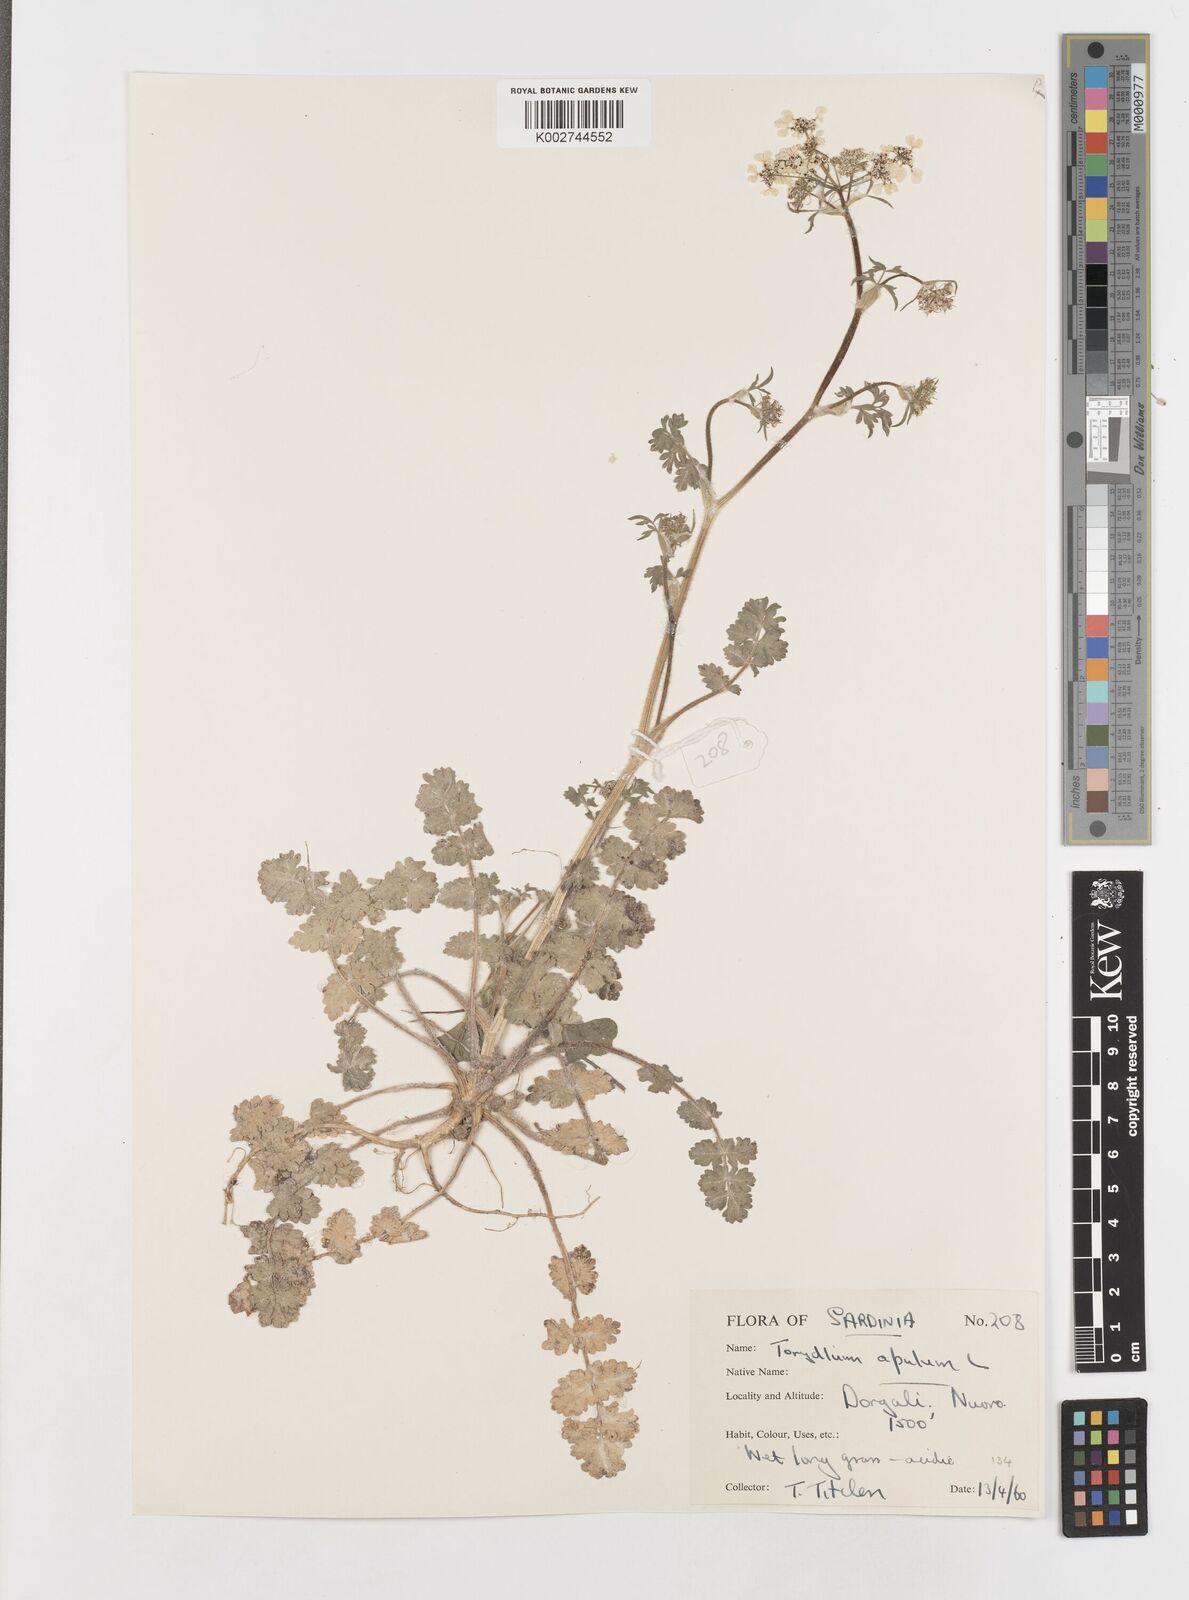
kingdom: Plantae
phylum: Tracheophyta
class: Magnoliopsida
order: Apiales
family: Apiaceae
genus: Tordylium
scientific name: Tordylium apulum
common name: Mediterranean hartwort
